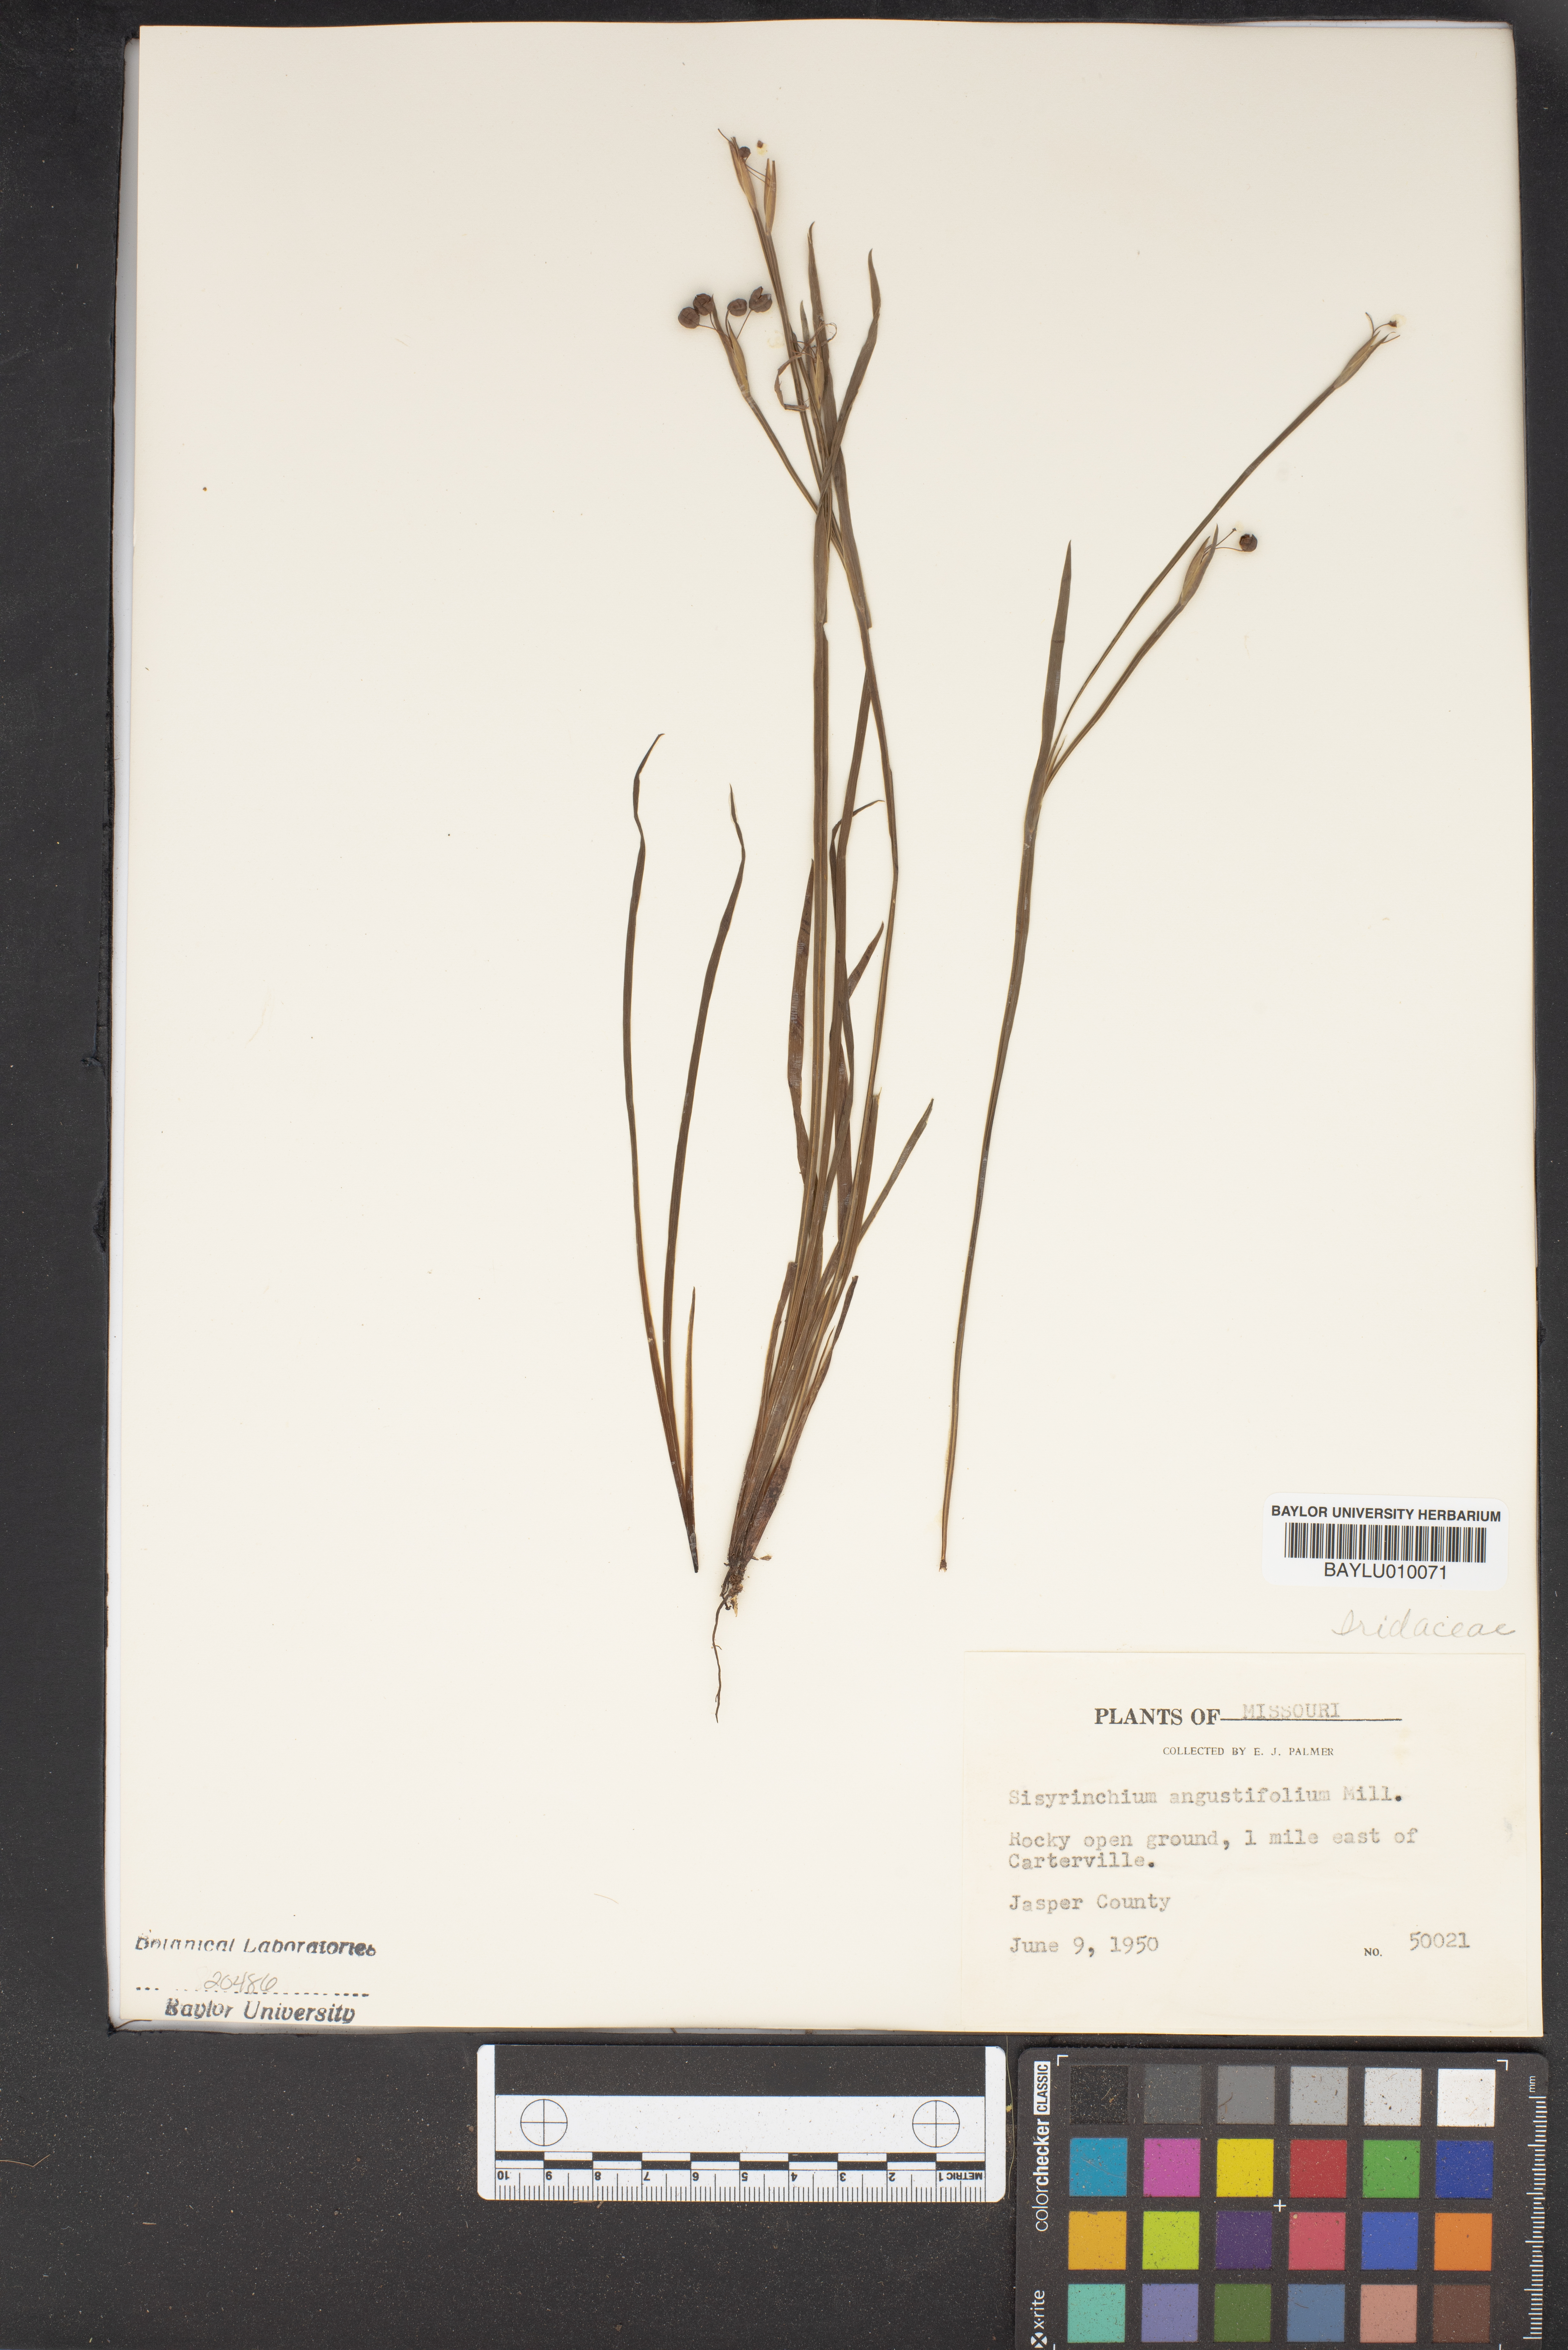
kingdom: Plantae
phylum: Tracheophyta
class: Liliopsida
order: Asparagales
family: Iridaceae
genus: Sisyrinchium
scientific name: Sisyrinchium angustifolium
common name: Narrow-leaf blue-eyed-grass
